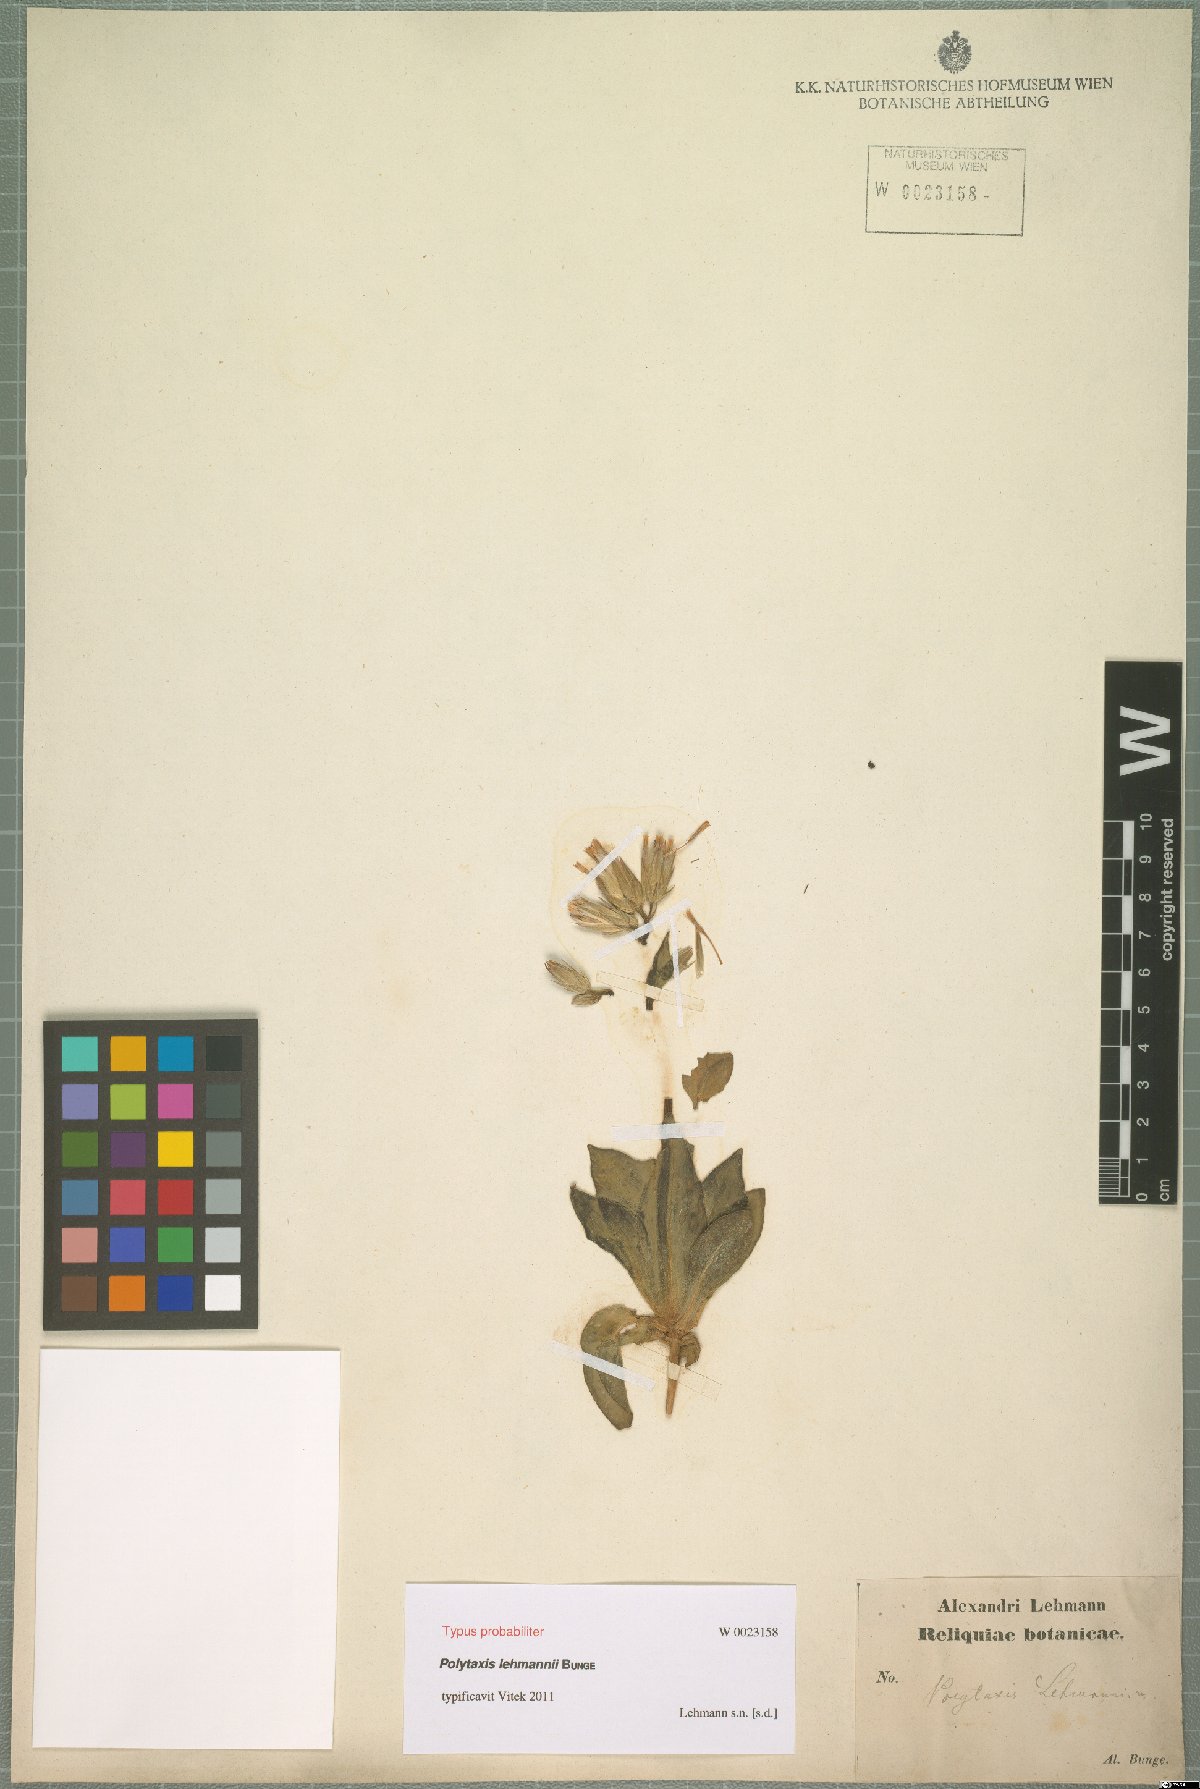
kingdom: Plantae
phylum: Tracheophyta
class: Magnoliopsida
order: Asterales
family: Asteraceae
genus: Saussurea
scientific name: Saussurea lehmannii
